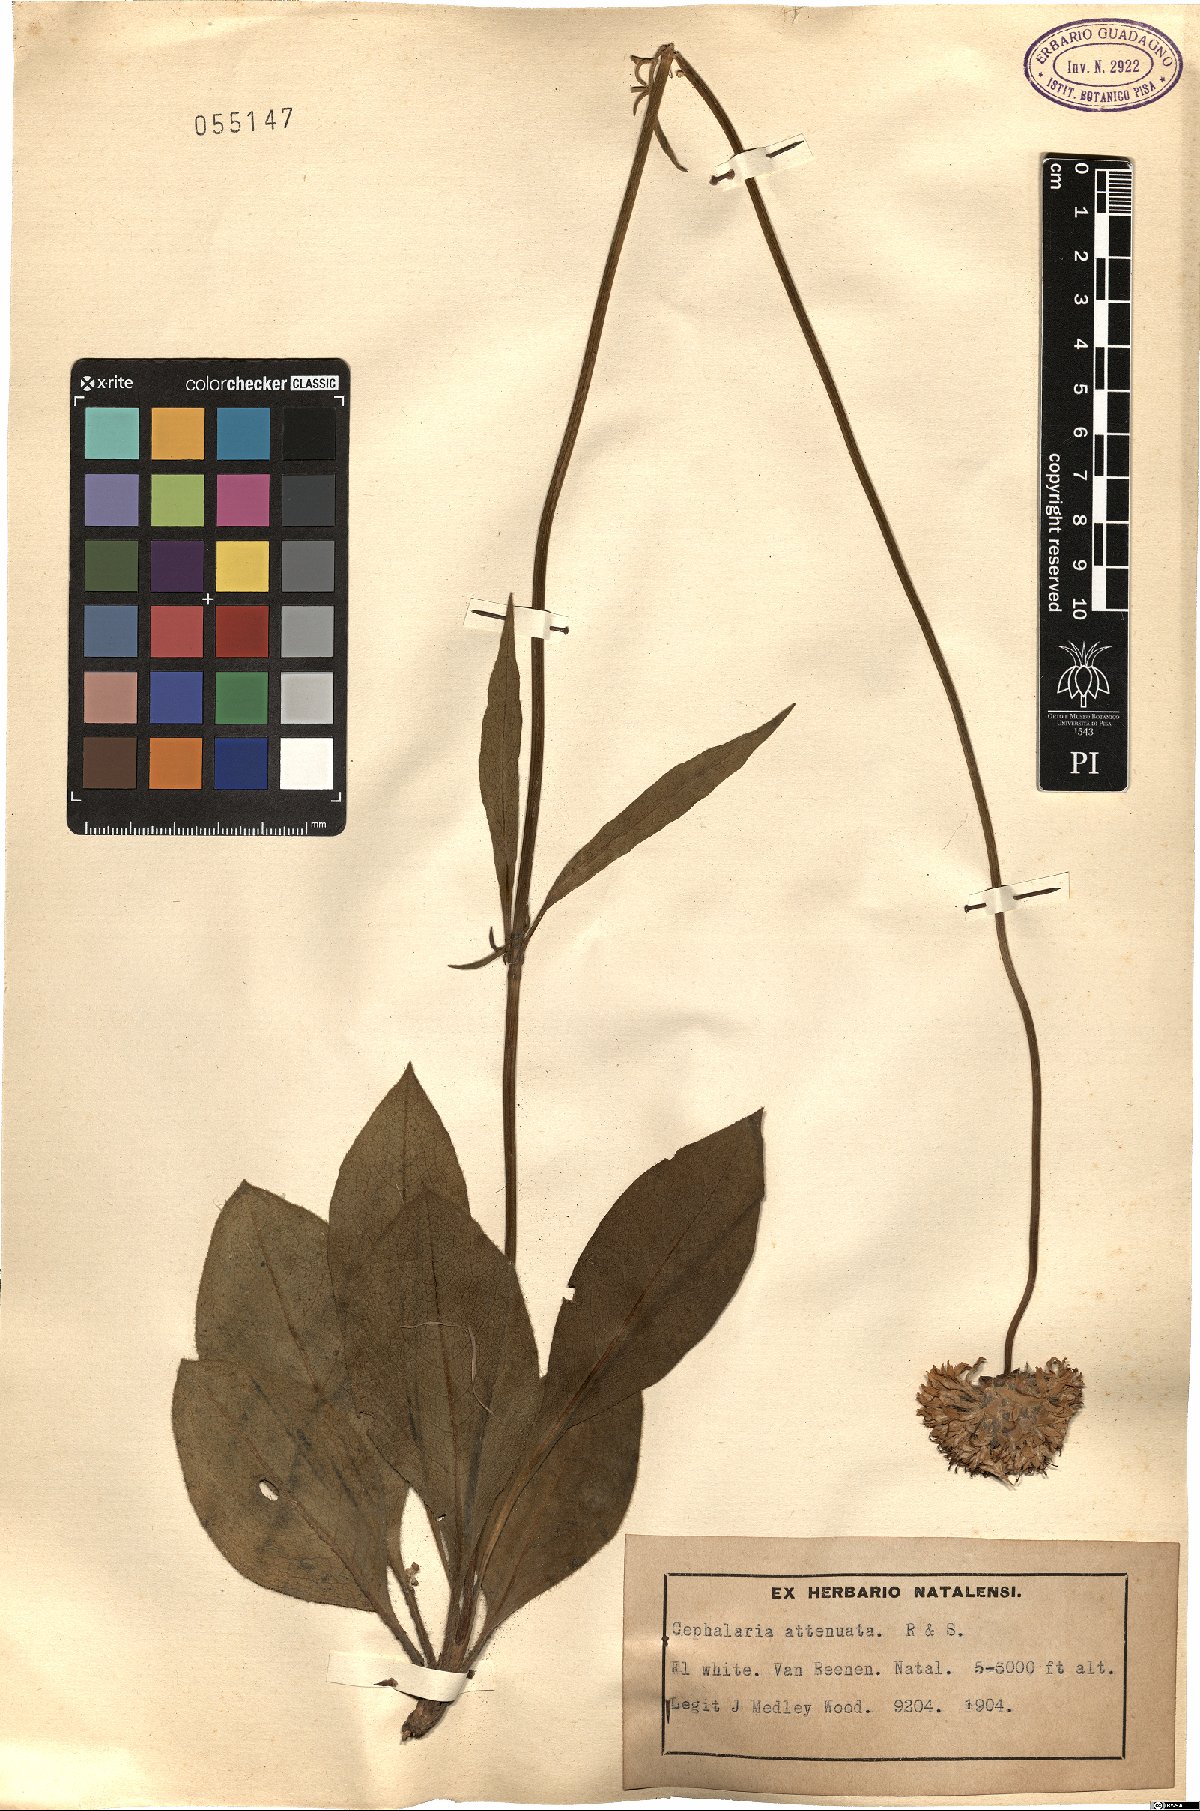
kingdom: Plantae
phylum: Tracheophyta
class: Magnoliopsida
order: Dipsacales
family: Caprifoliaceae
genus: Cephalaria
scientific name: Cephalaria attenuata
